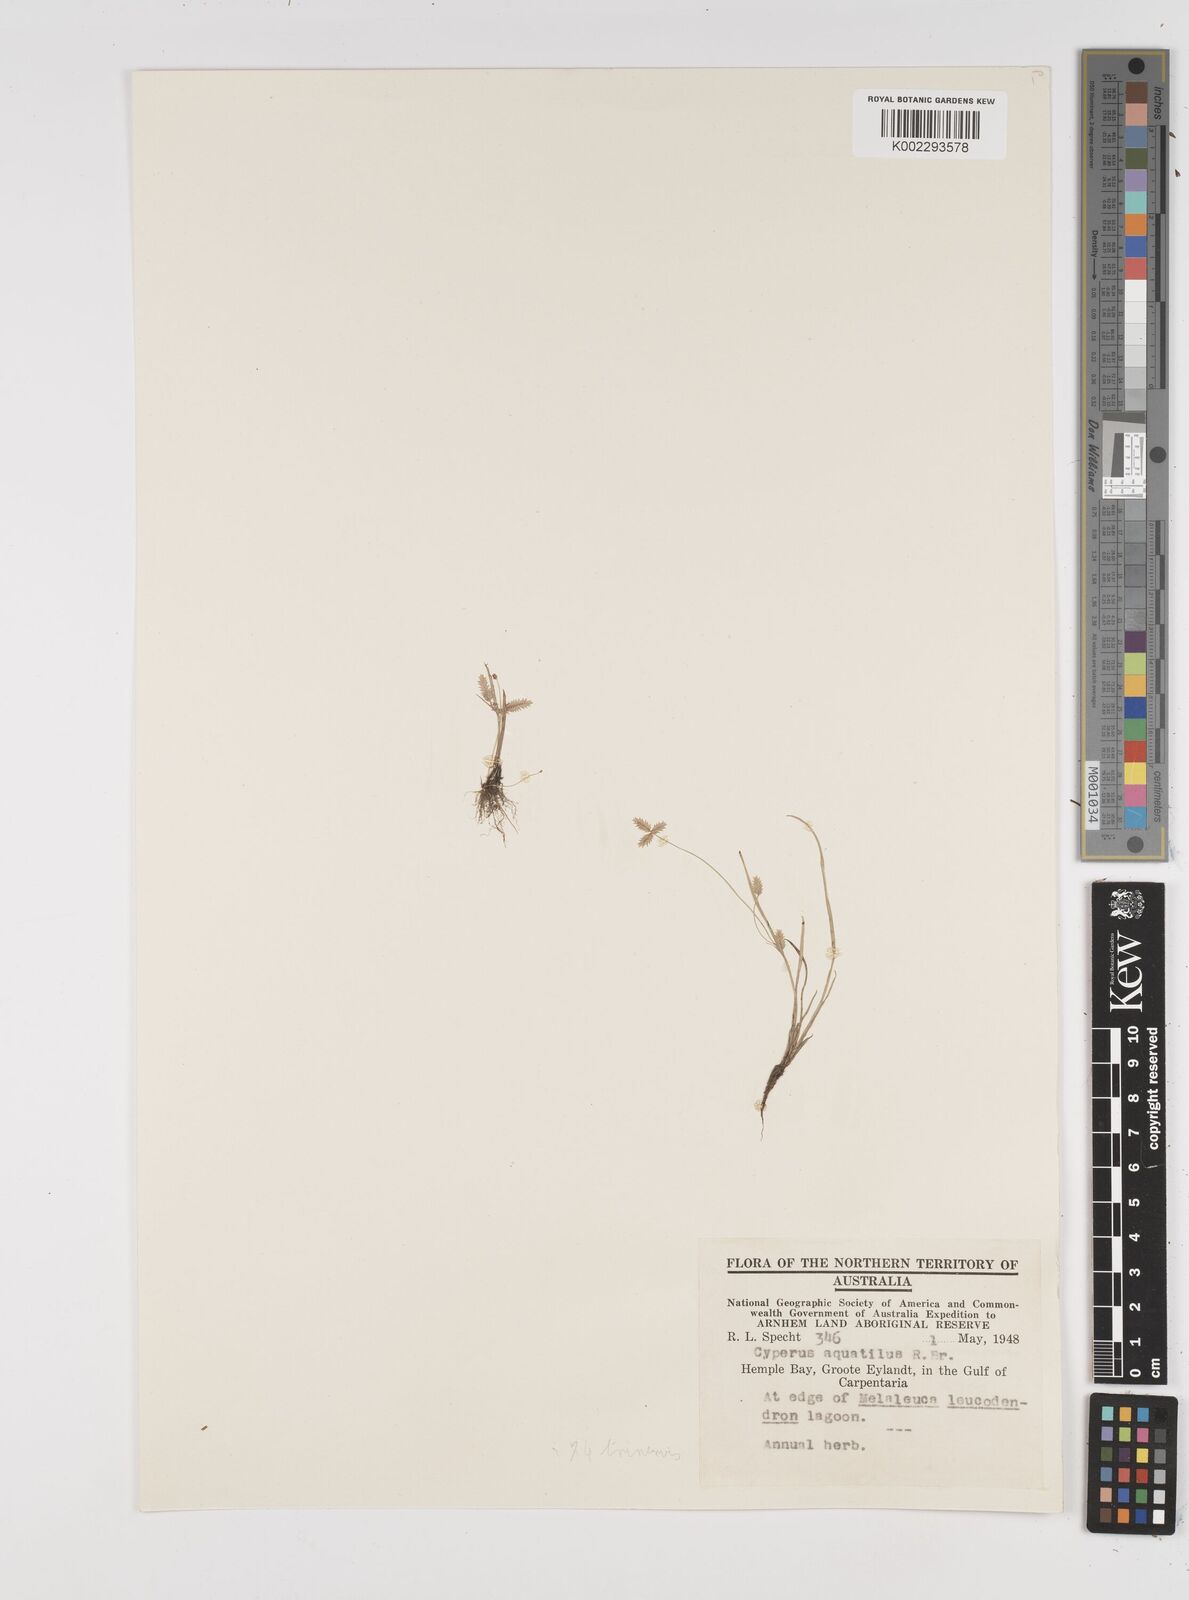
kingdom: Plantae
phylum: Tracheophyta
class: Liliopsida
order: Poales
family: Cyperaceae
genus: Cyperus
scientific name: Cyperus aquatilis
